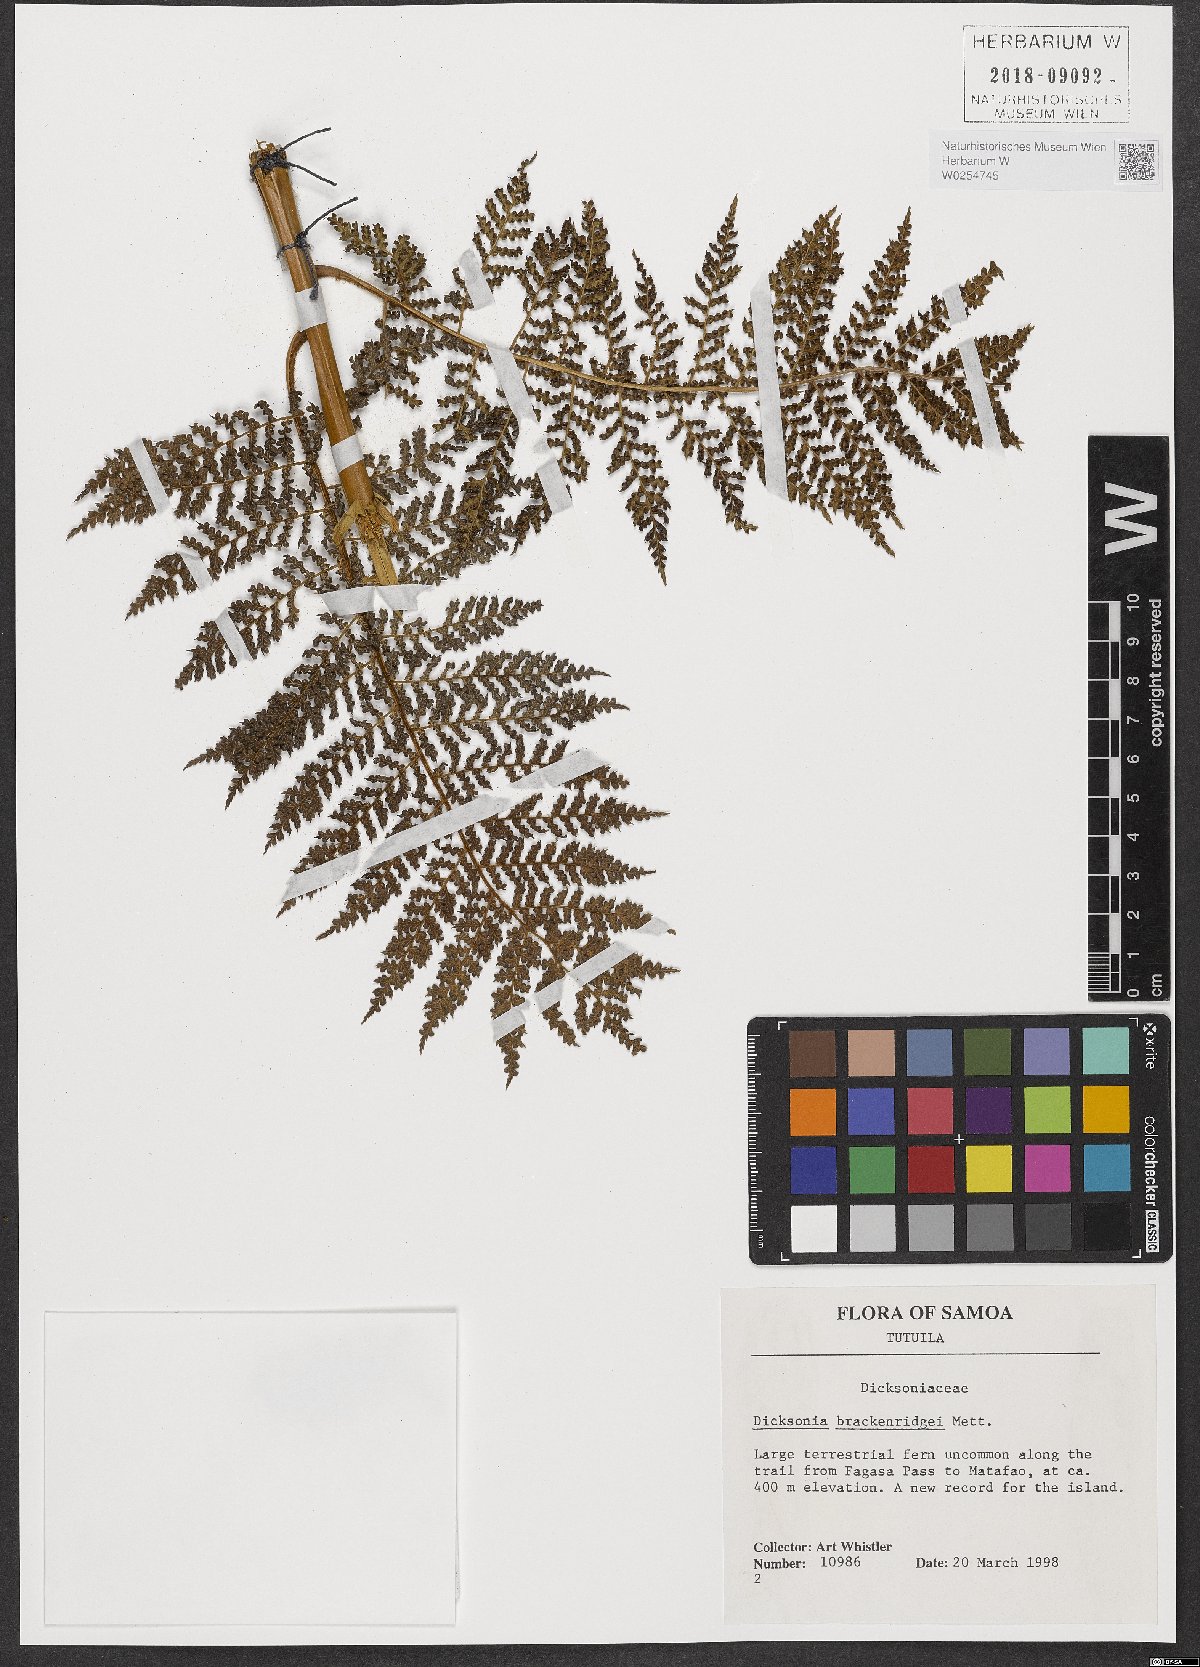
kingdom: Plantae
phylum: Tracheophyta
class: Polypodiopsida
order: Cyatheales
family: Dicksoniaceae
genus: Dicksonia
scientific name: Dicksonia brackenridgei
